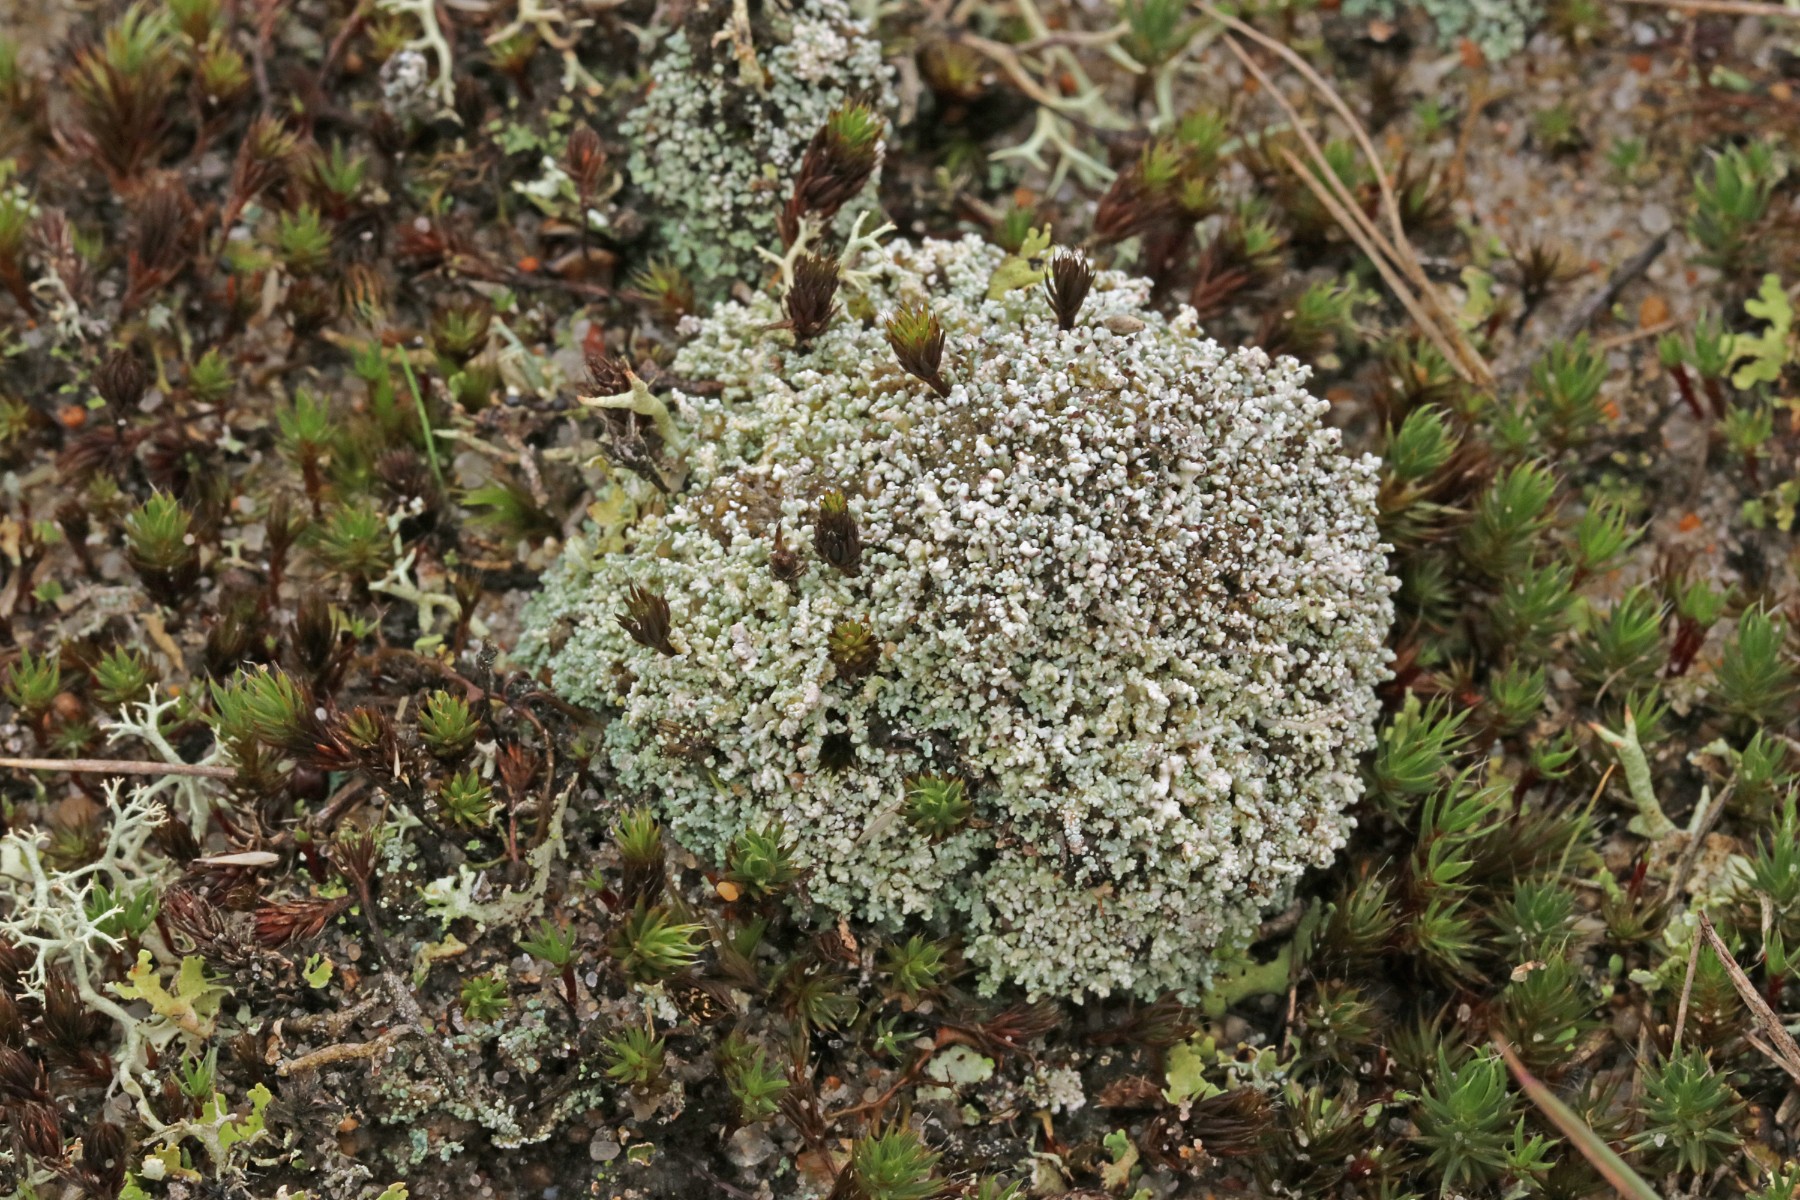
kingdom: Fungi
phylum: Ascomycota
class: Lecanoromycetes
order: Lecanorales
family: Stereocaulaceae
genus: Stereocaulon
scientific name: Stereocaulon condensatum
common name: lav korallav
